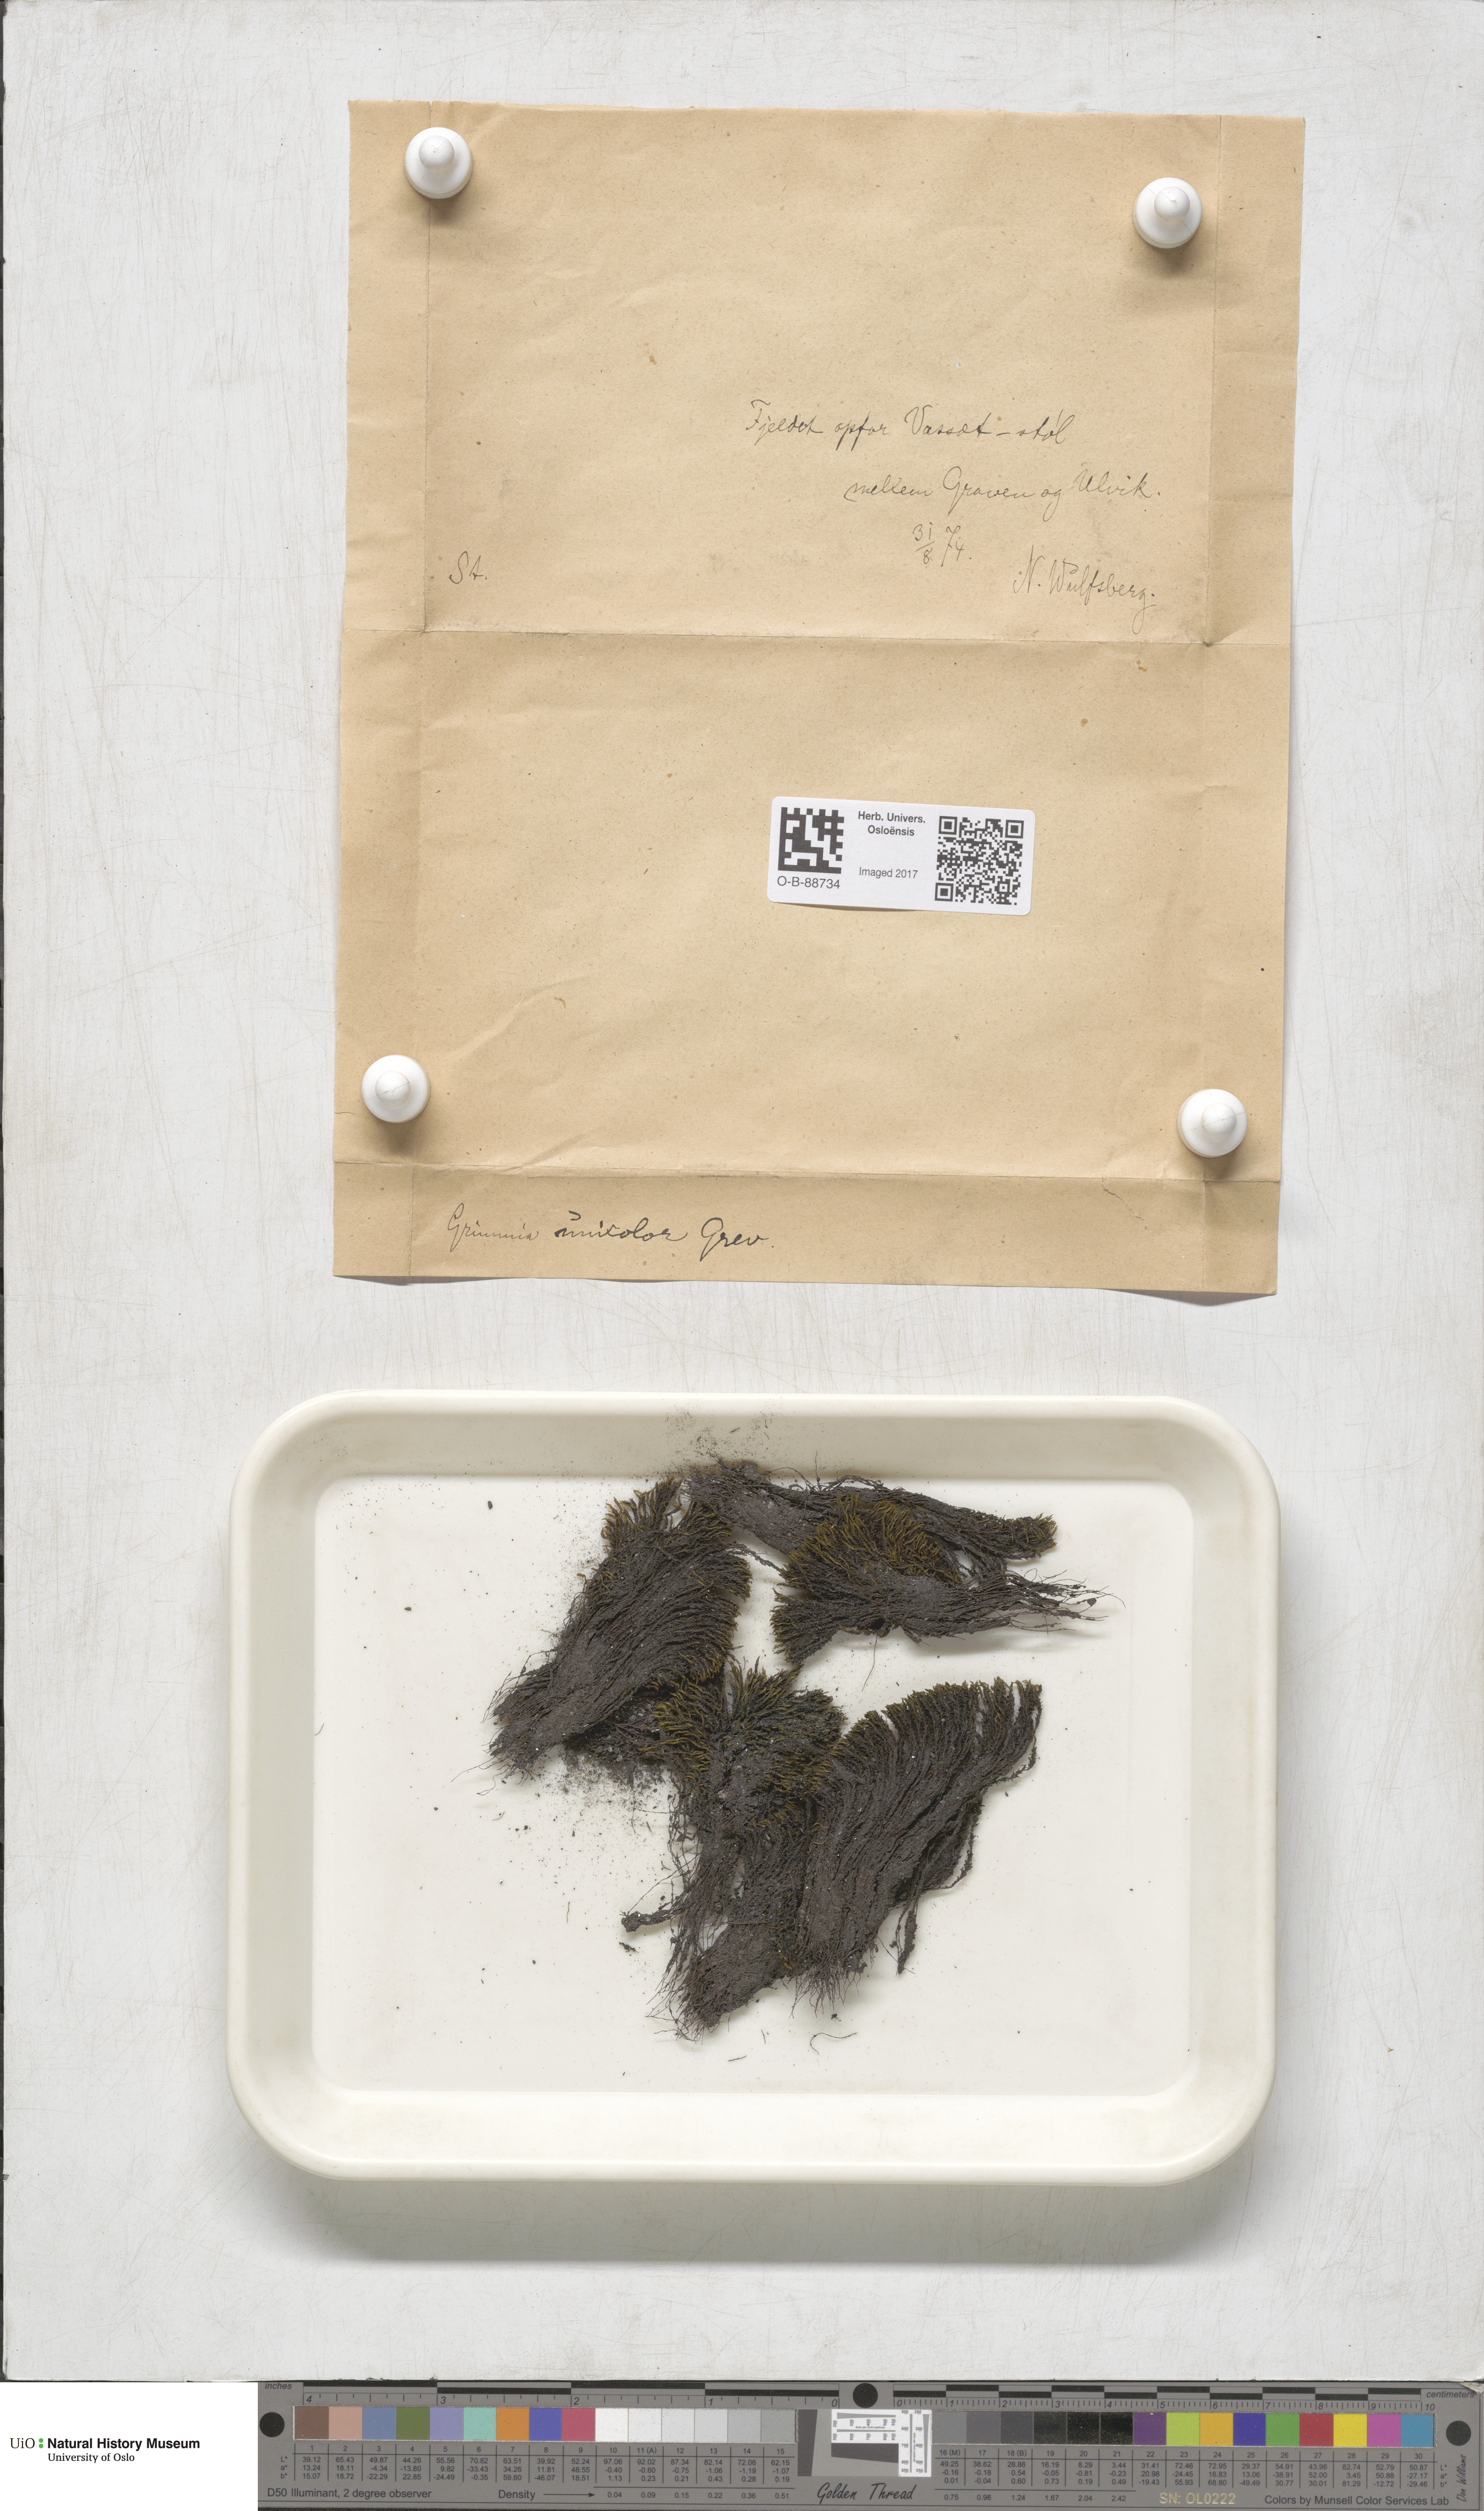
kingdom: Plantae
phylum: Bryophyta
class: Bryopsida
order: Grimmiales
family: Grimmiaceae
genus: Grimmia
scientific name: Grimmia unicolor
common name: Dingy grimmia
